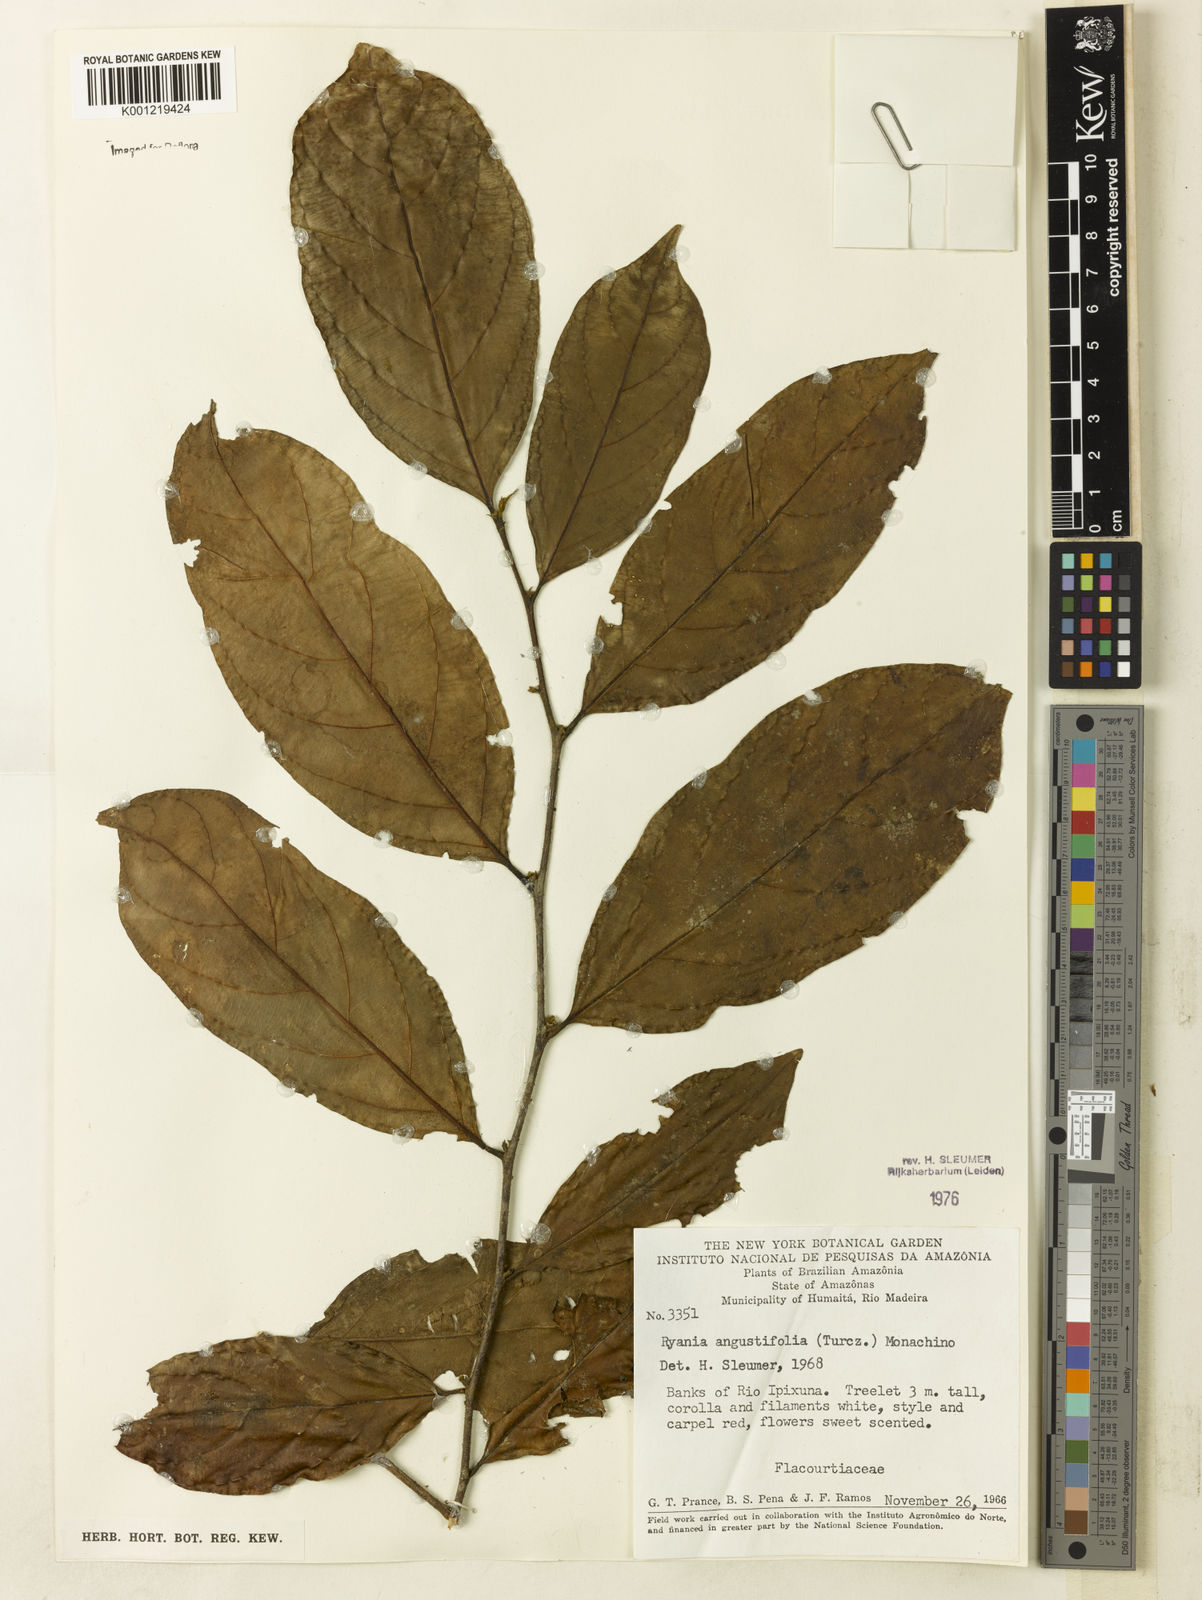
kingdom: Plantae
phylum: Tracheophyta
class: Magnoliopsida
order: Malpighiales
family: Salicaceae
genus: Ryania
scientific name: Ryania angustifolia
